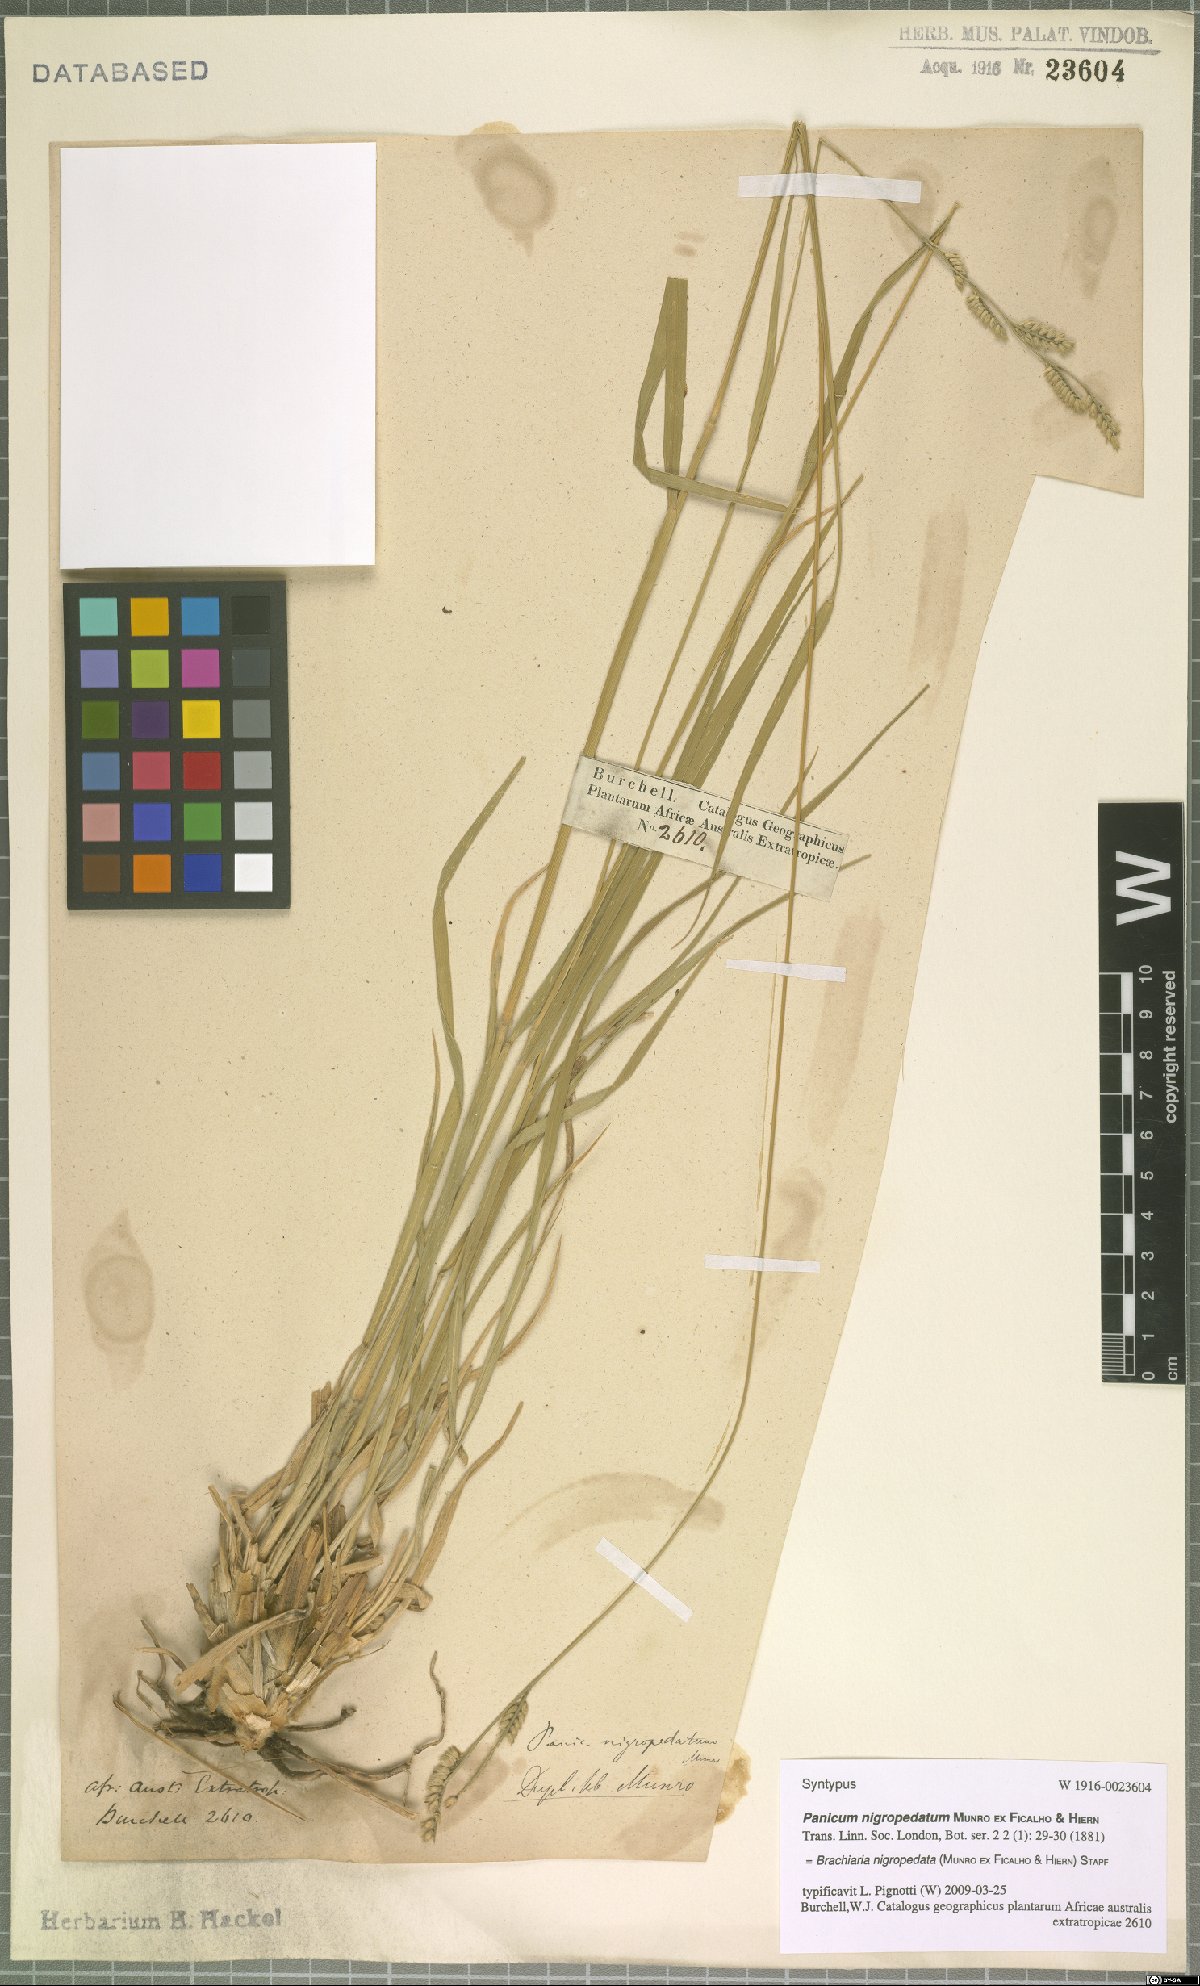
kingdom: Plantae
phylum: Tracheophyta
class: Liliopsida
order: Poales
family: Poaceae
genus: Urochloa
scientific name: Urochloa nigropedata
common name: Spotted signal grass
